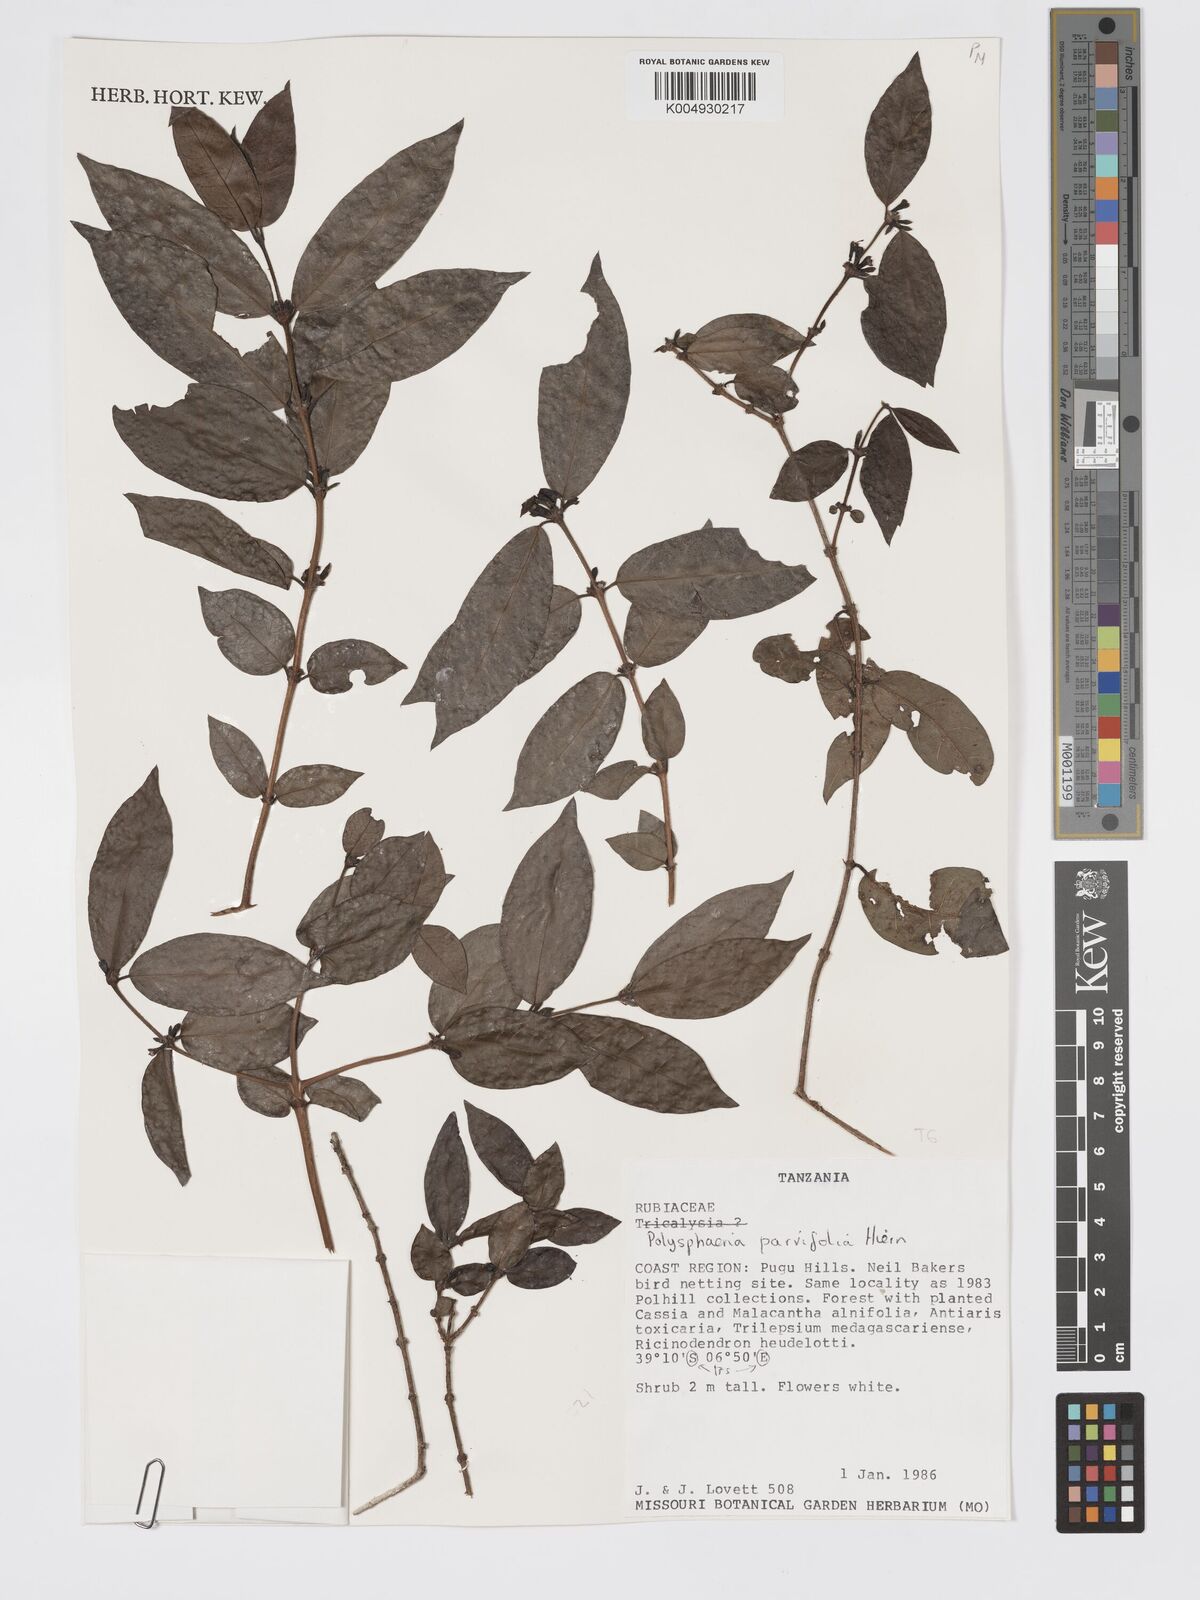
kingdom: Plantae
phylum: Tracheophyta
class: Magnoliopsida
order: Gentianales
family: Rubiaceae
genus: Polysphaeria
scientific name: Polysphaeria parvifolia
